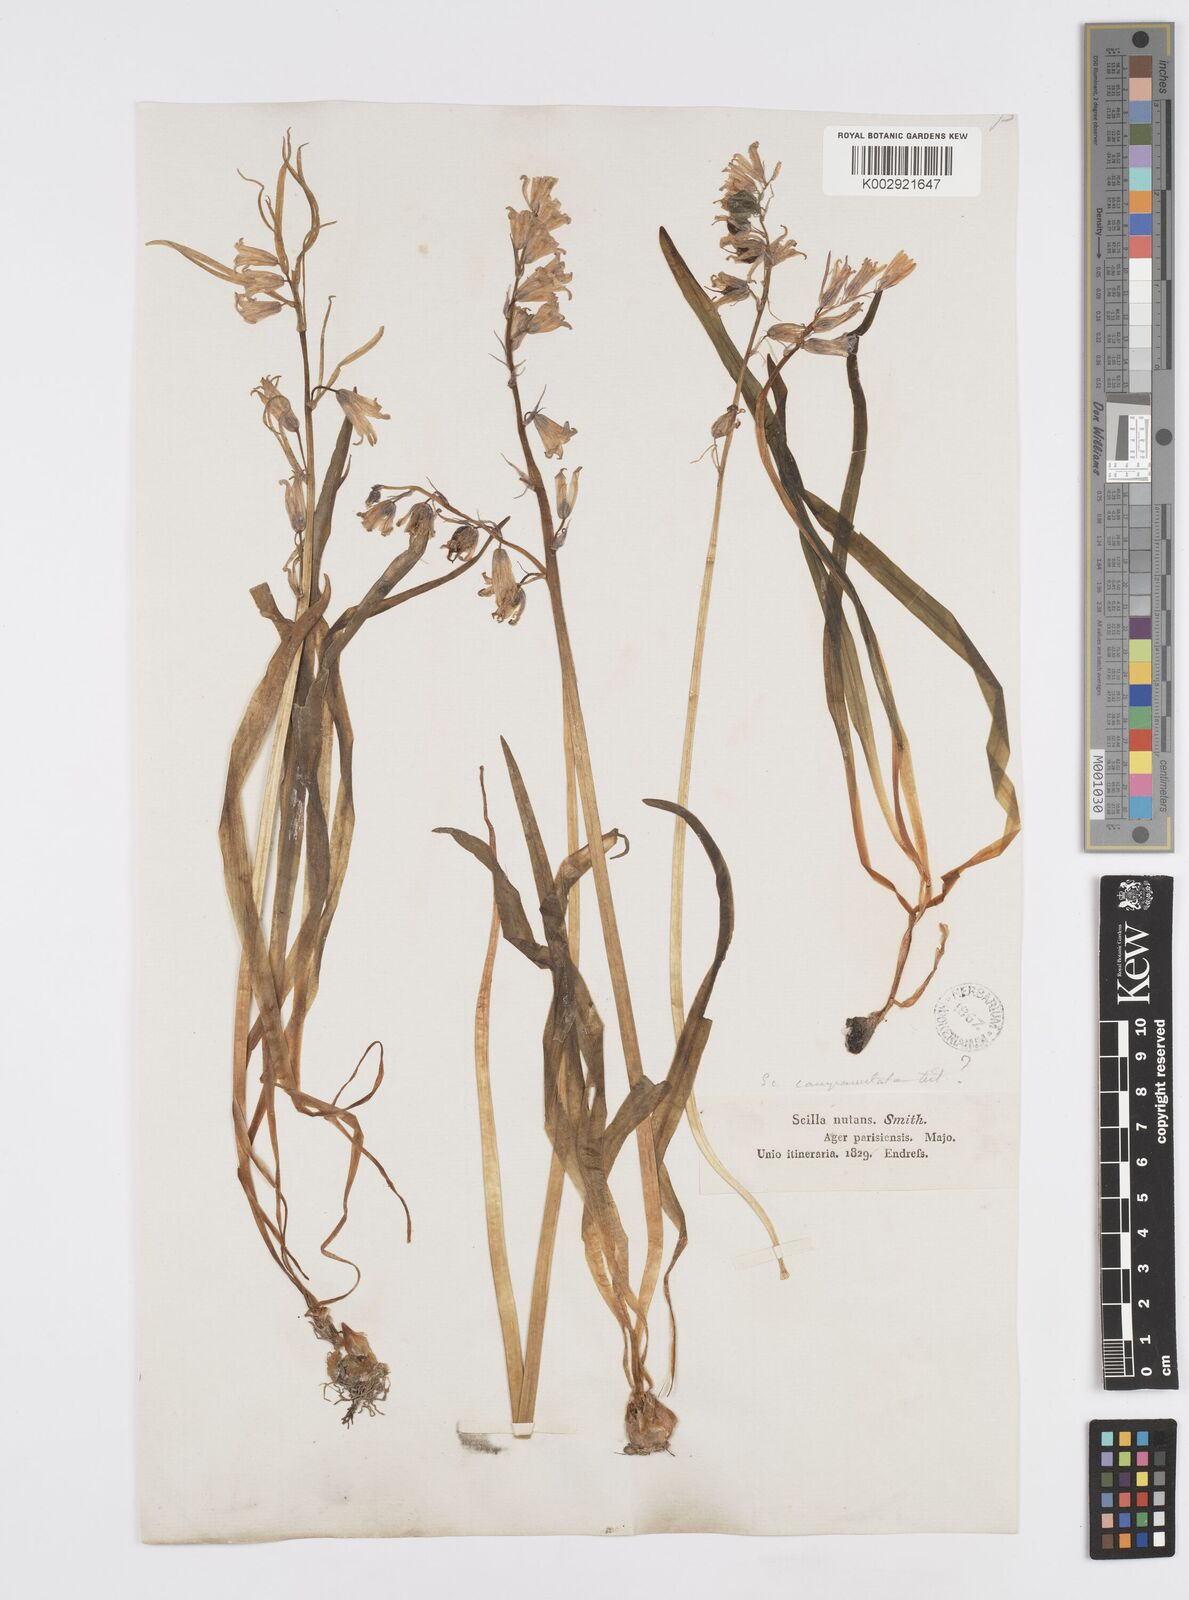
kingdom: Plantae
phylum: Tracheophyta
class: Liliopsida
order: Asparagales
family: Asparagaceae
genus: Hyacinthoides
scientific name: Hyacinthoides non-scripta
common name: Bluebell
